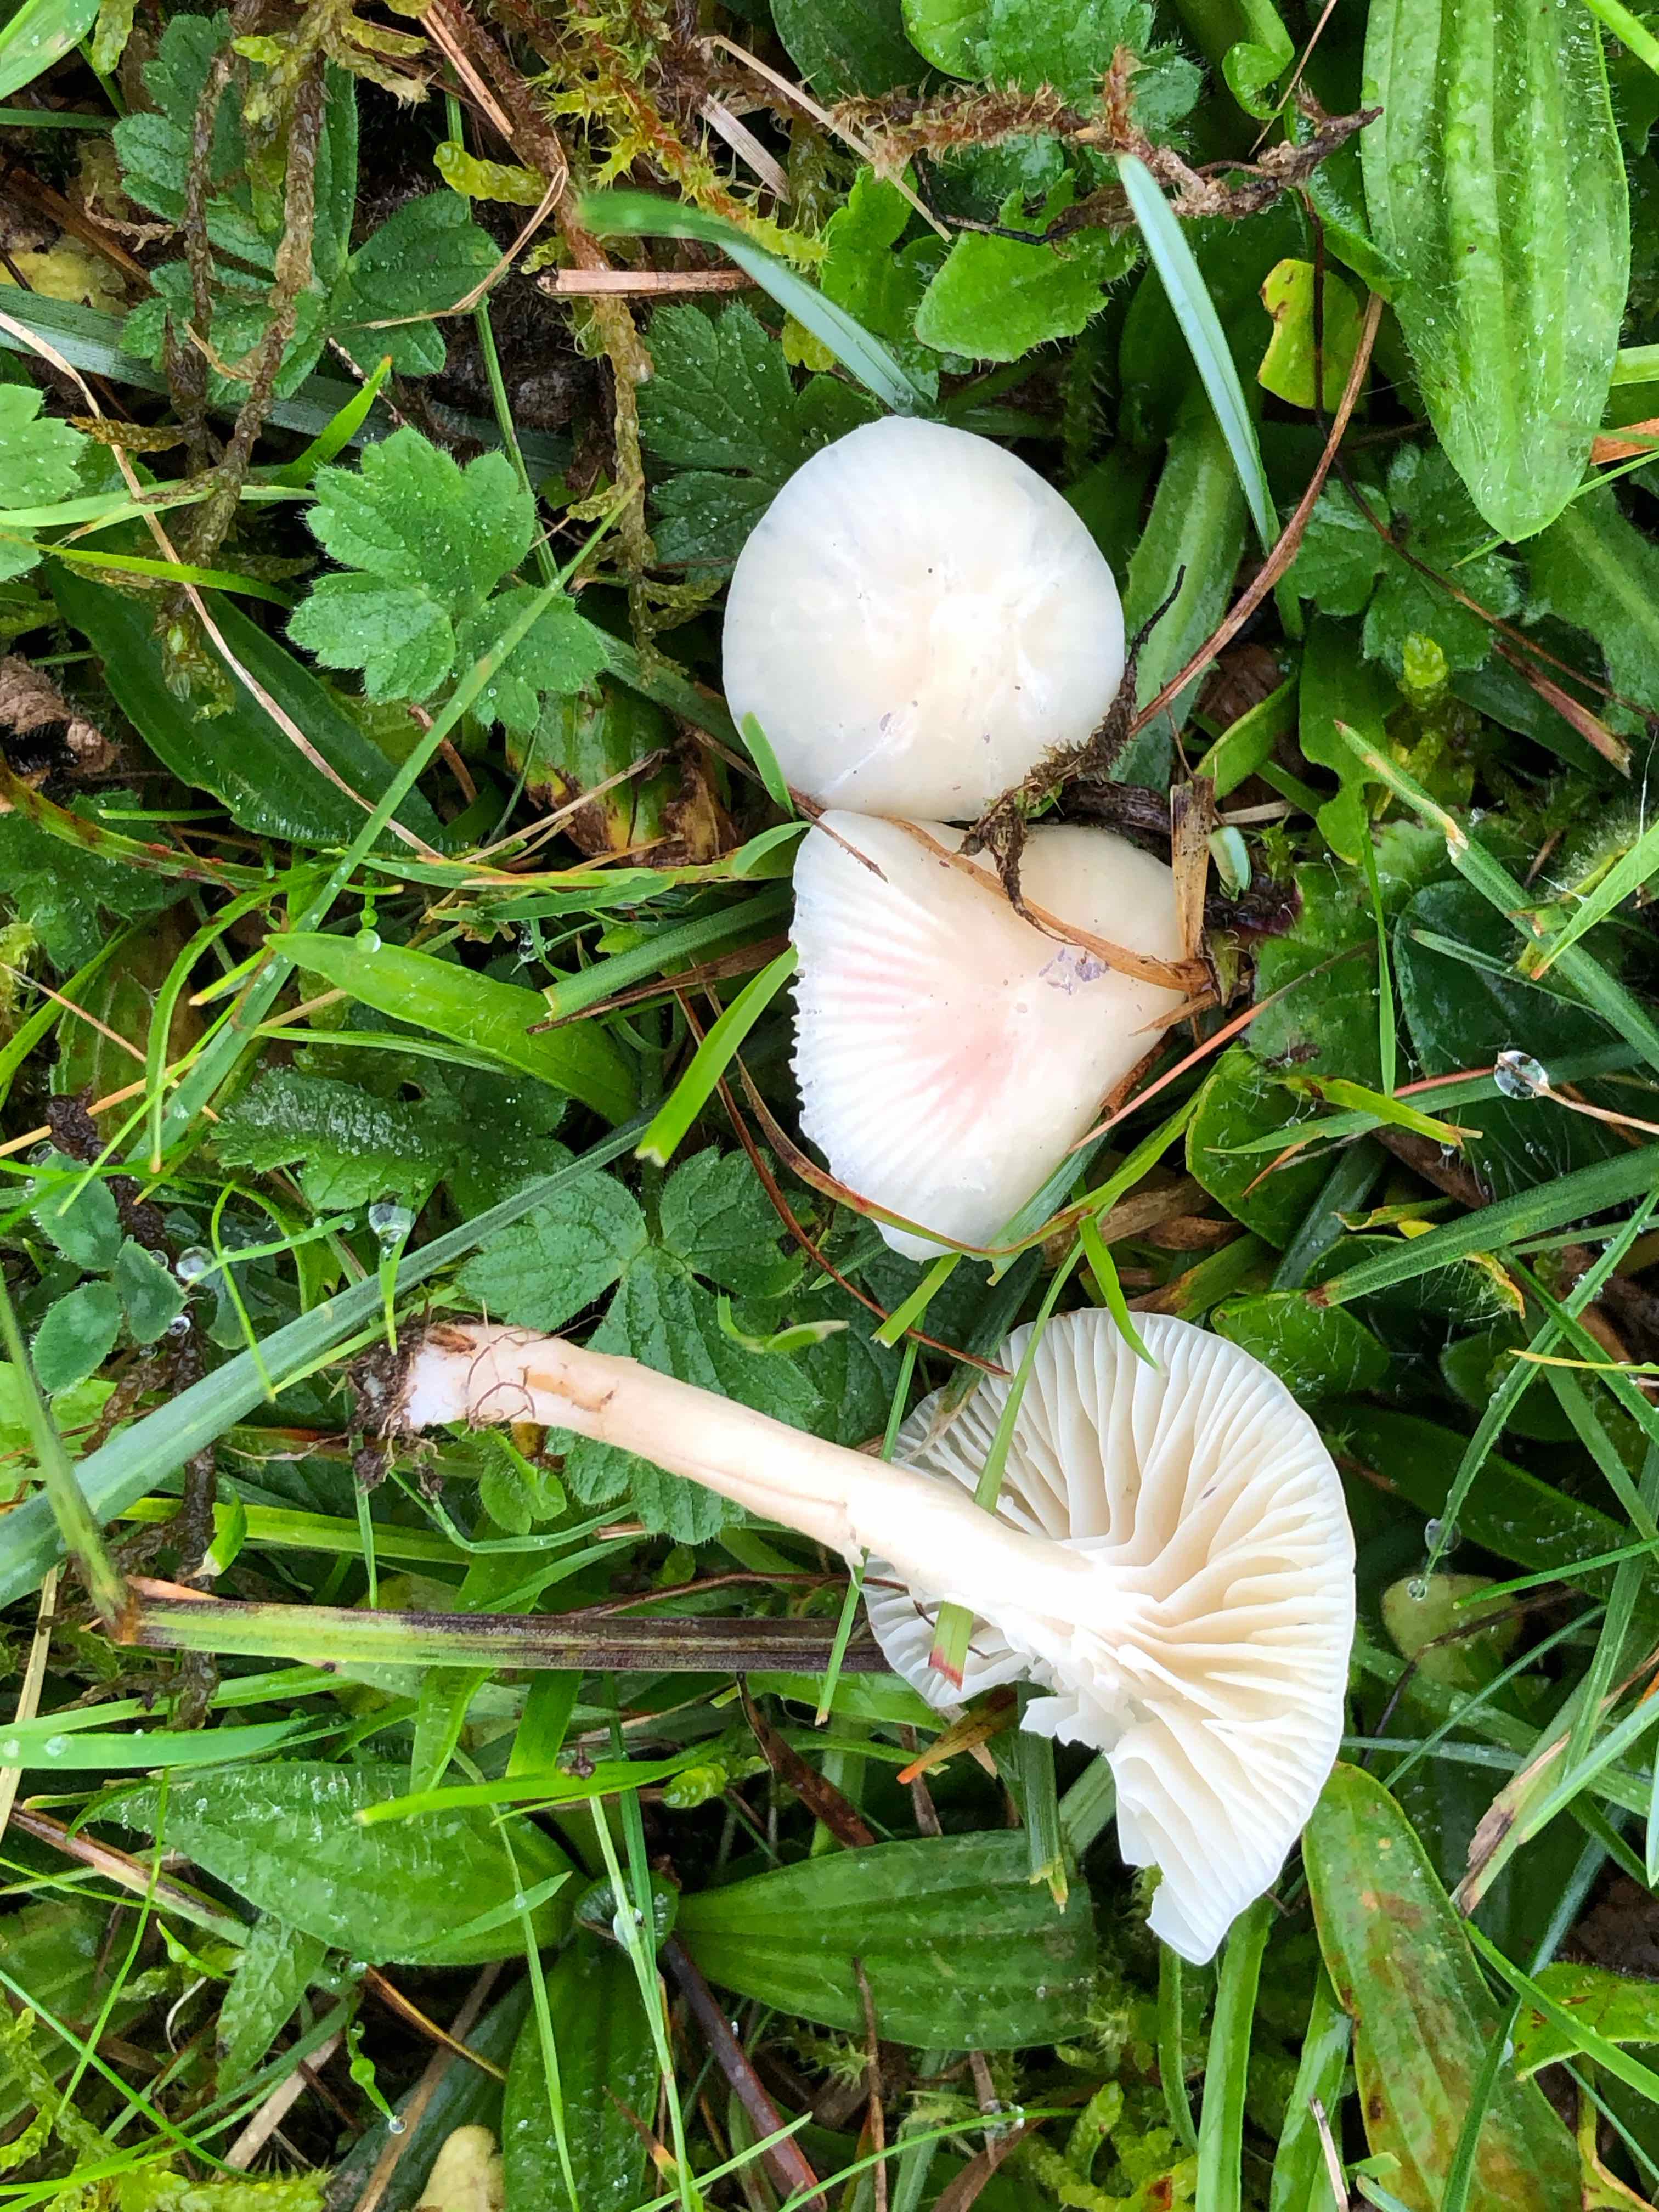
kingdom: Fungi
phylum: Basidiomycota
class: Agaricomycetes
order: Agaricales
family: Hygrophoraceae
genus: Cuphophyllus
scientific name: Cuphophyllus virgineus
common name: snehvid vokshat
